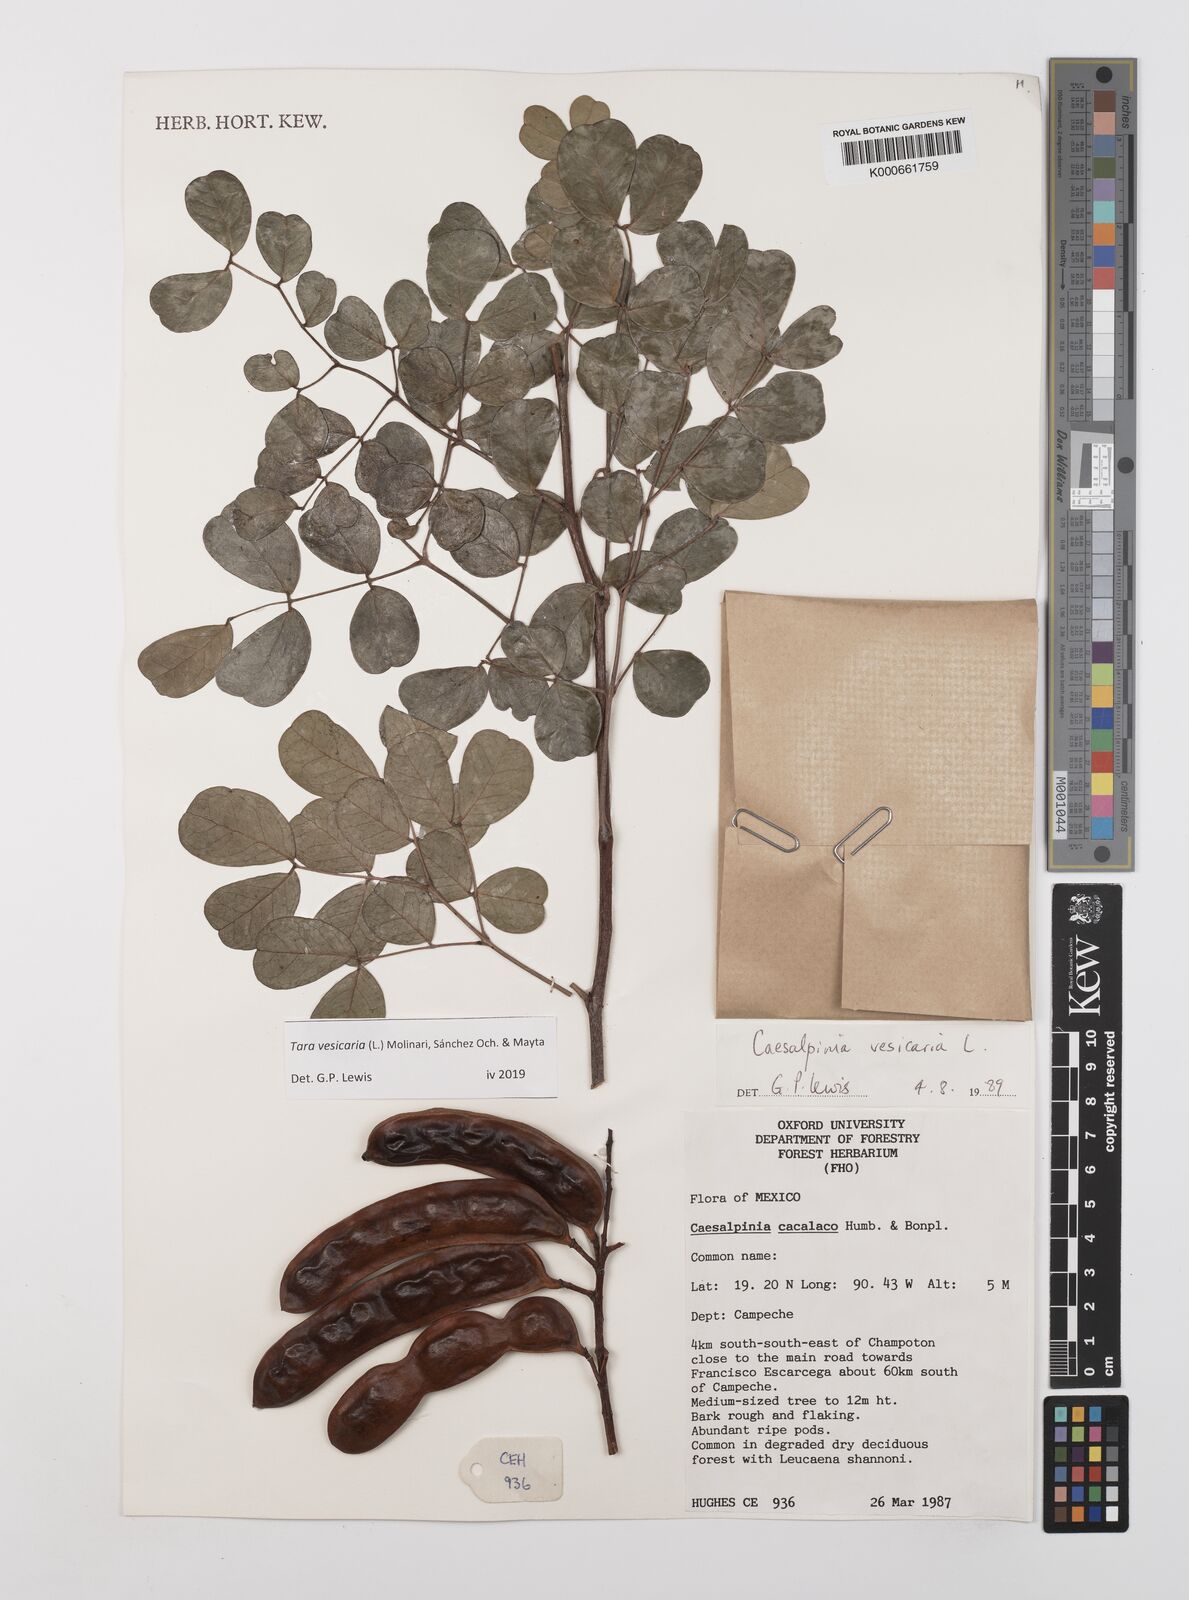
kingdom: Plantae
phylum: Tracheophyta
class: Magnoliopsida
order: Fabales
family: Fabaceae
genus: Tara
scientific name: Tara vesicaria
